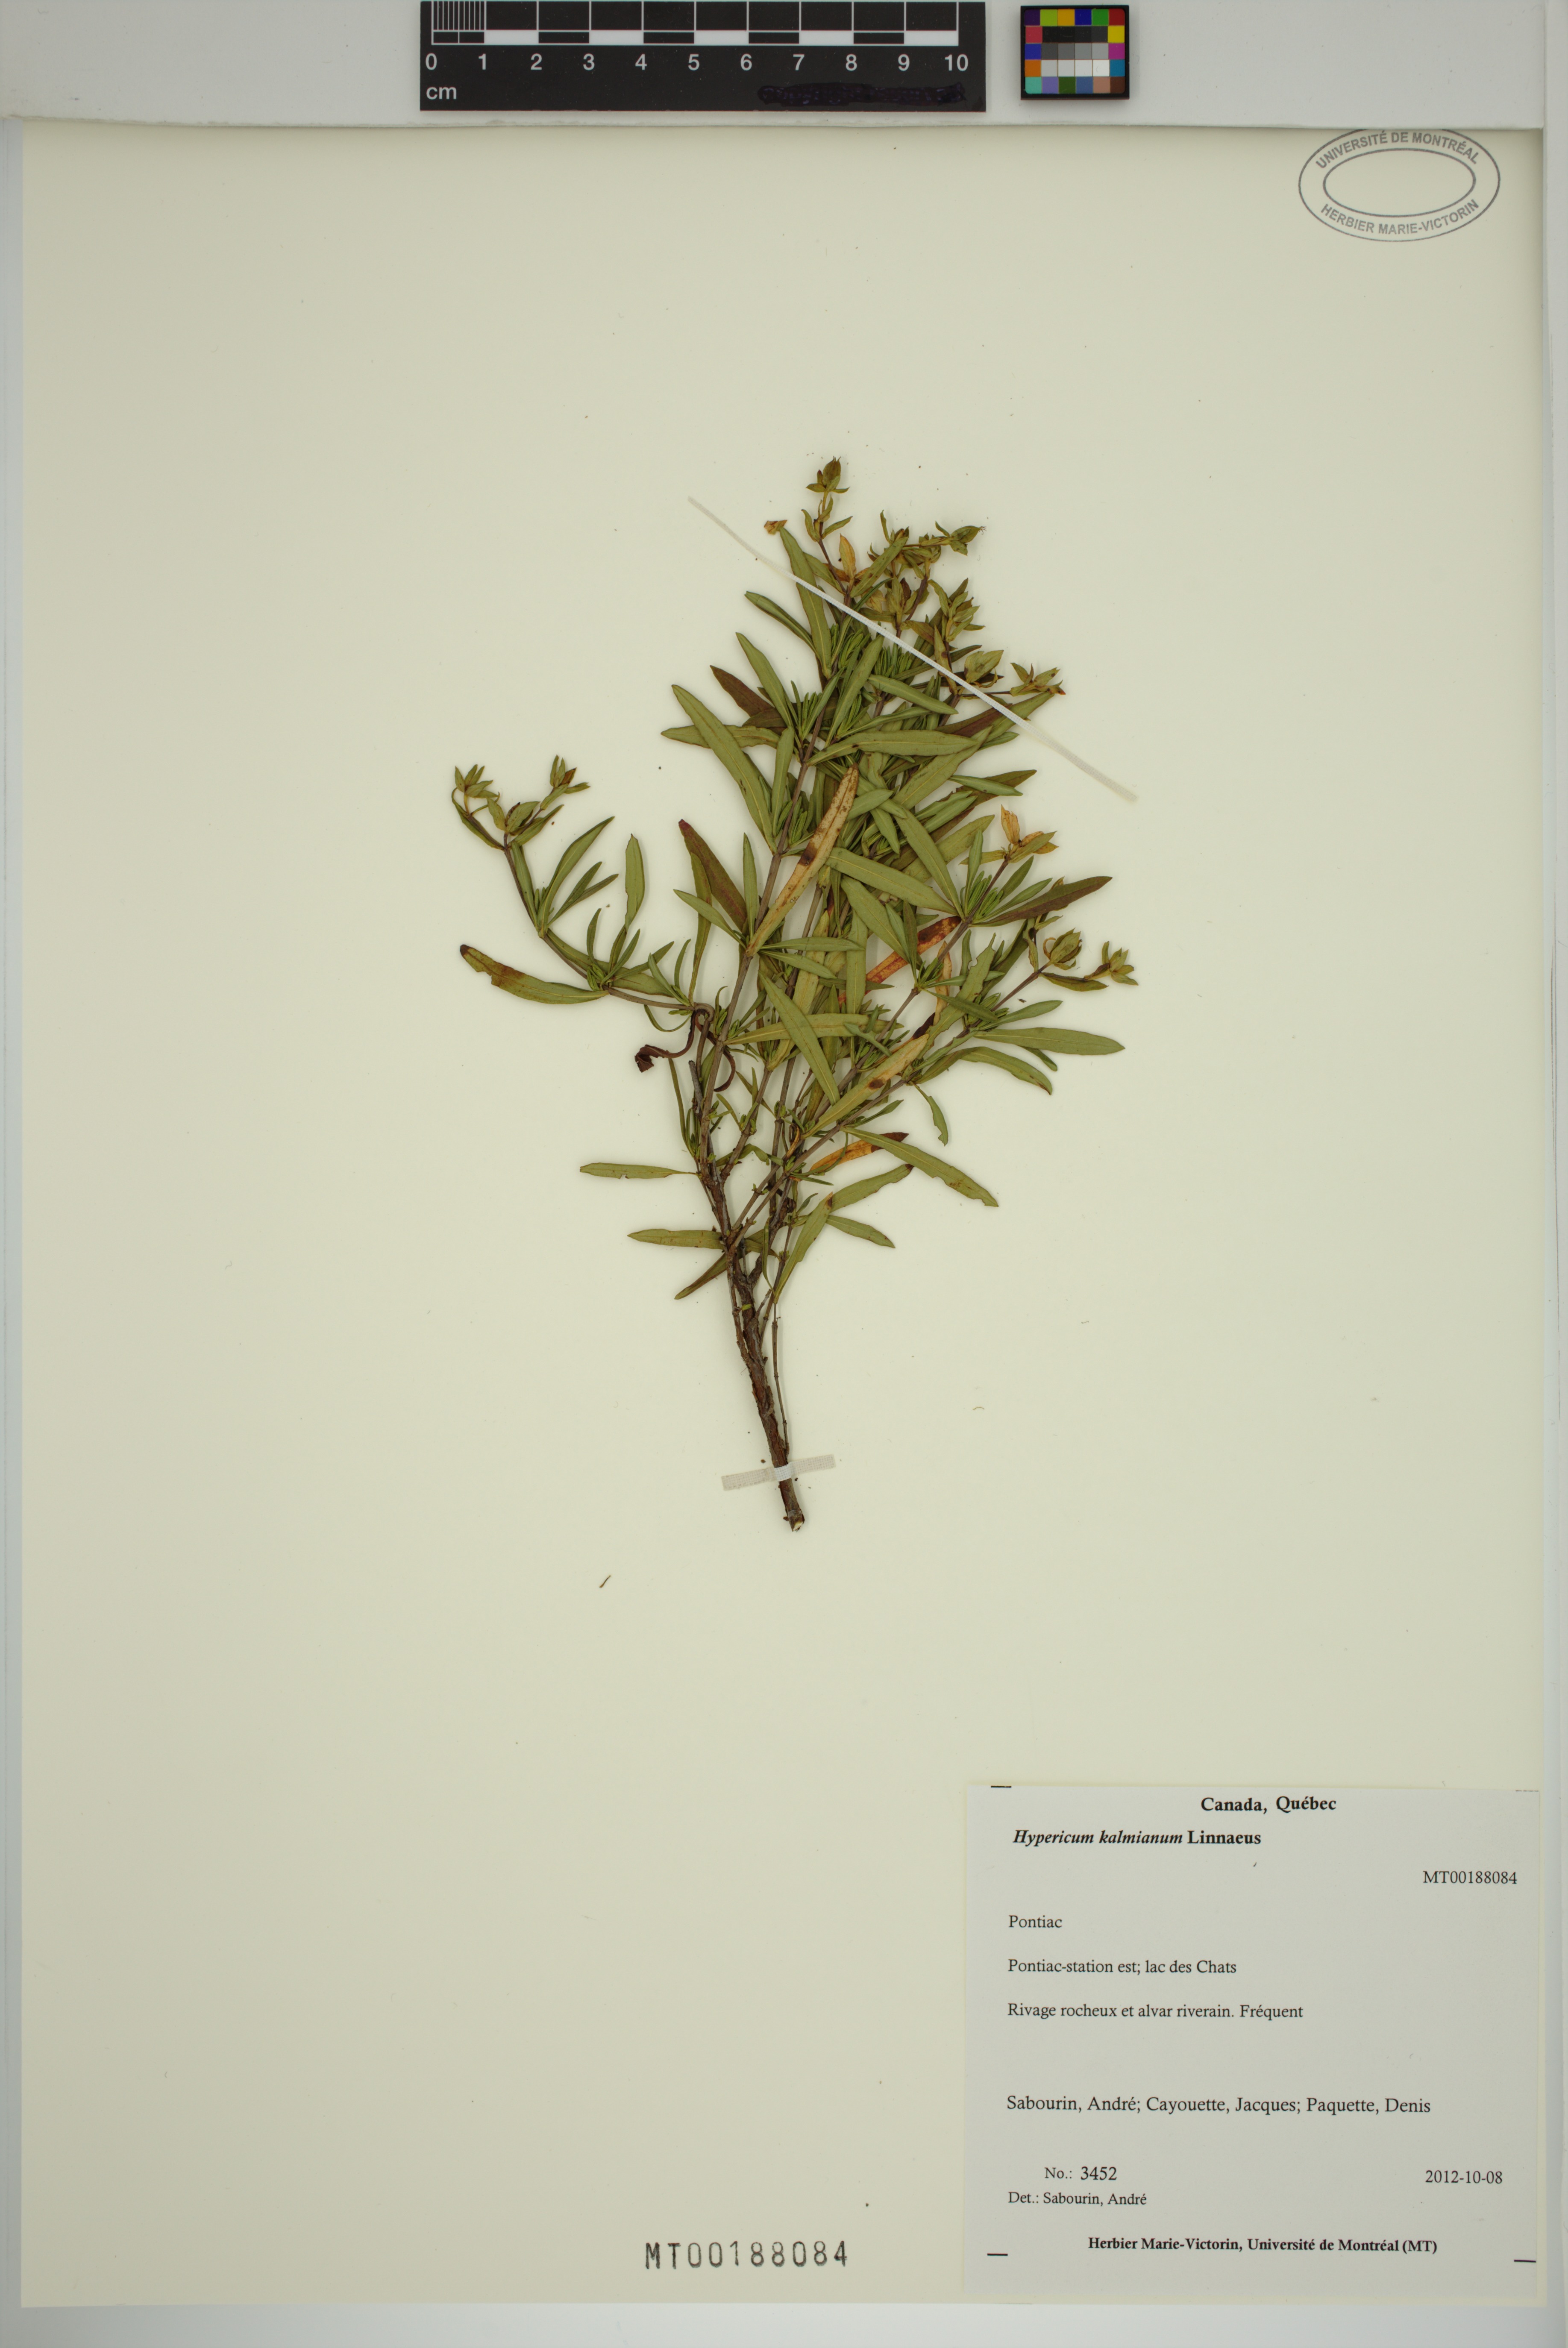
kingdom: Plantae
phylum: Tracheophyta
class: Magnoliopsida
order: Malpighiales
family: Hypericaceae
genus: Hypericum
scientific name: Hypericum kalmianum
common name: Kalm's st. john's-wort
